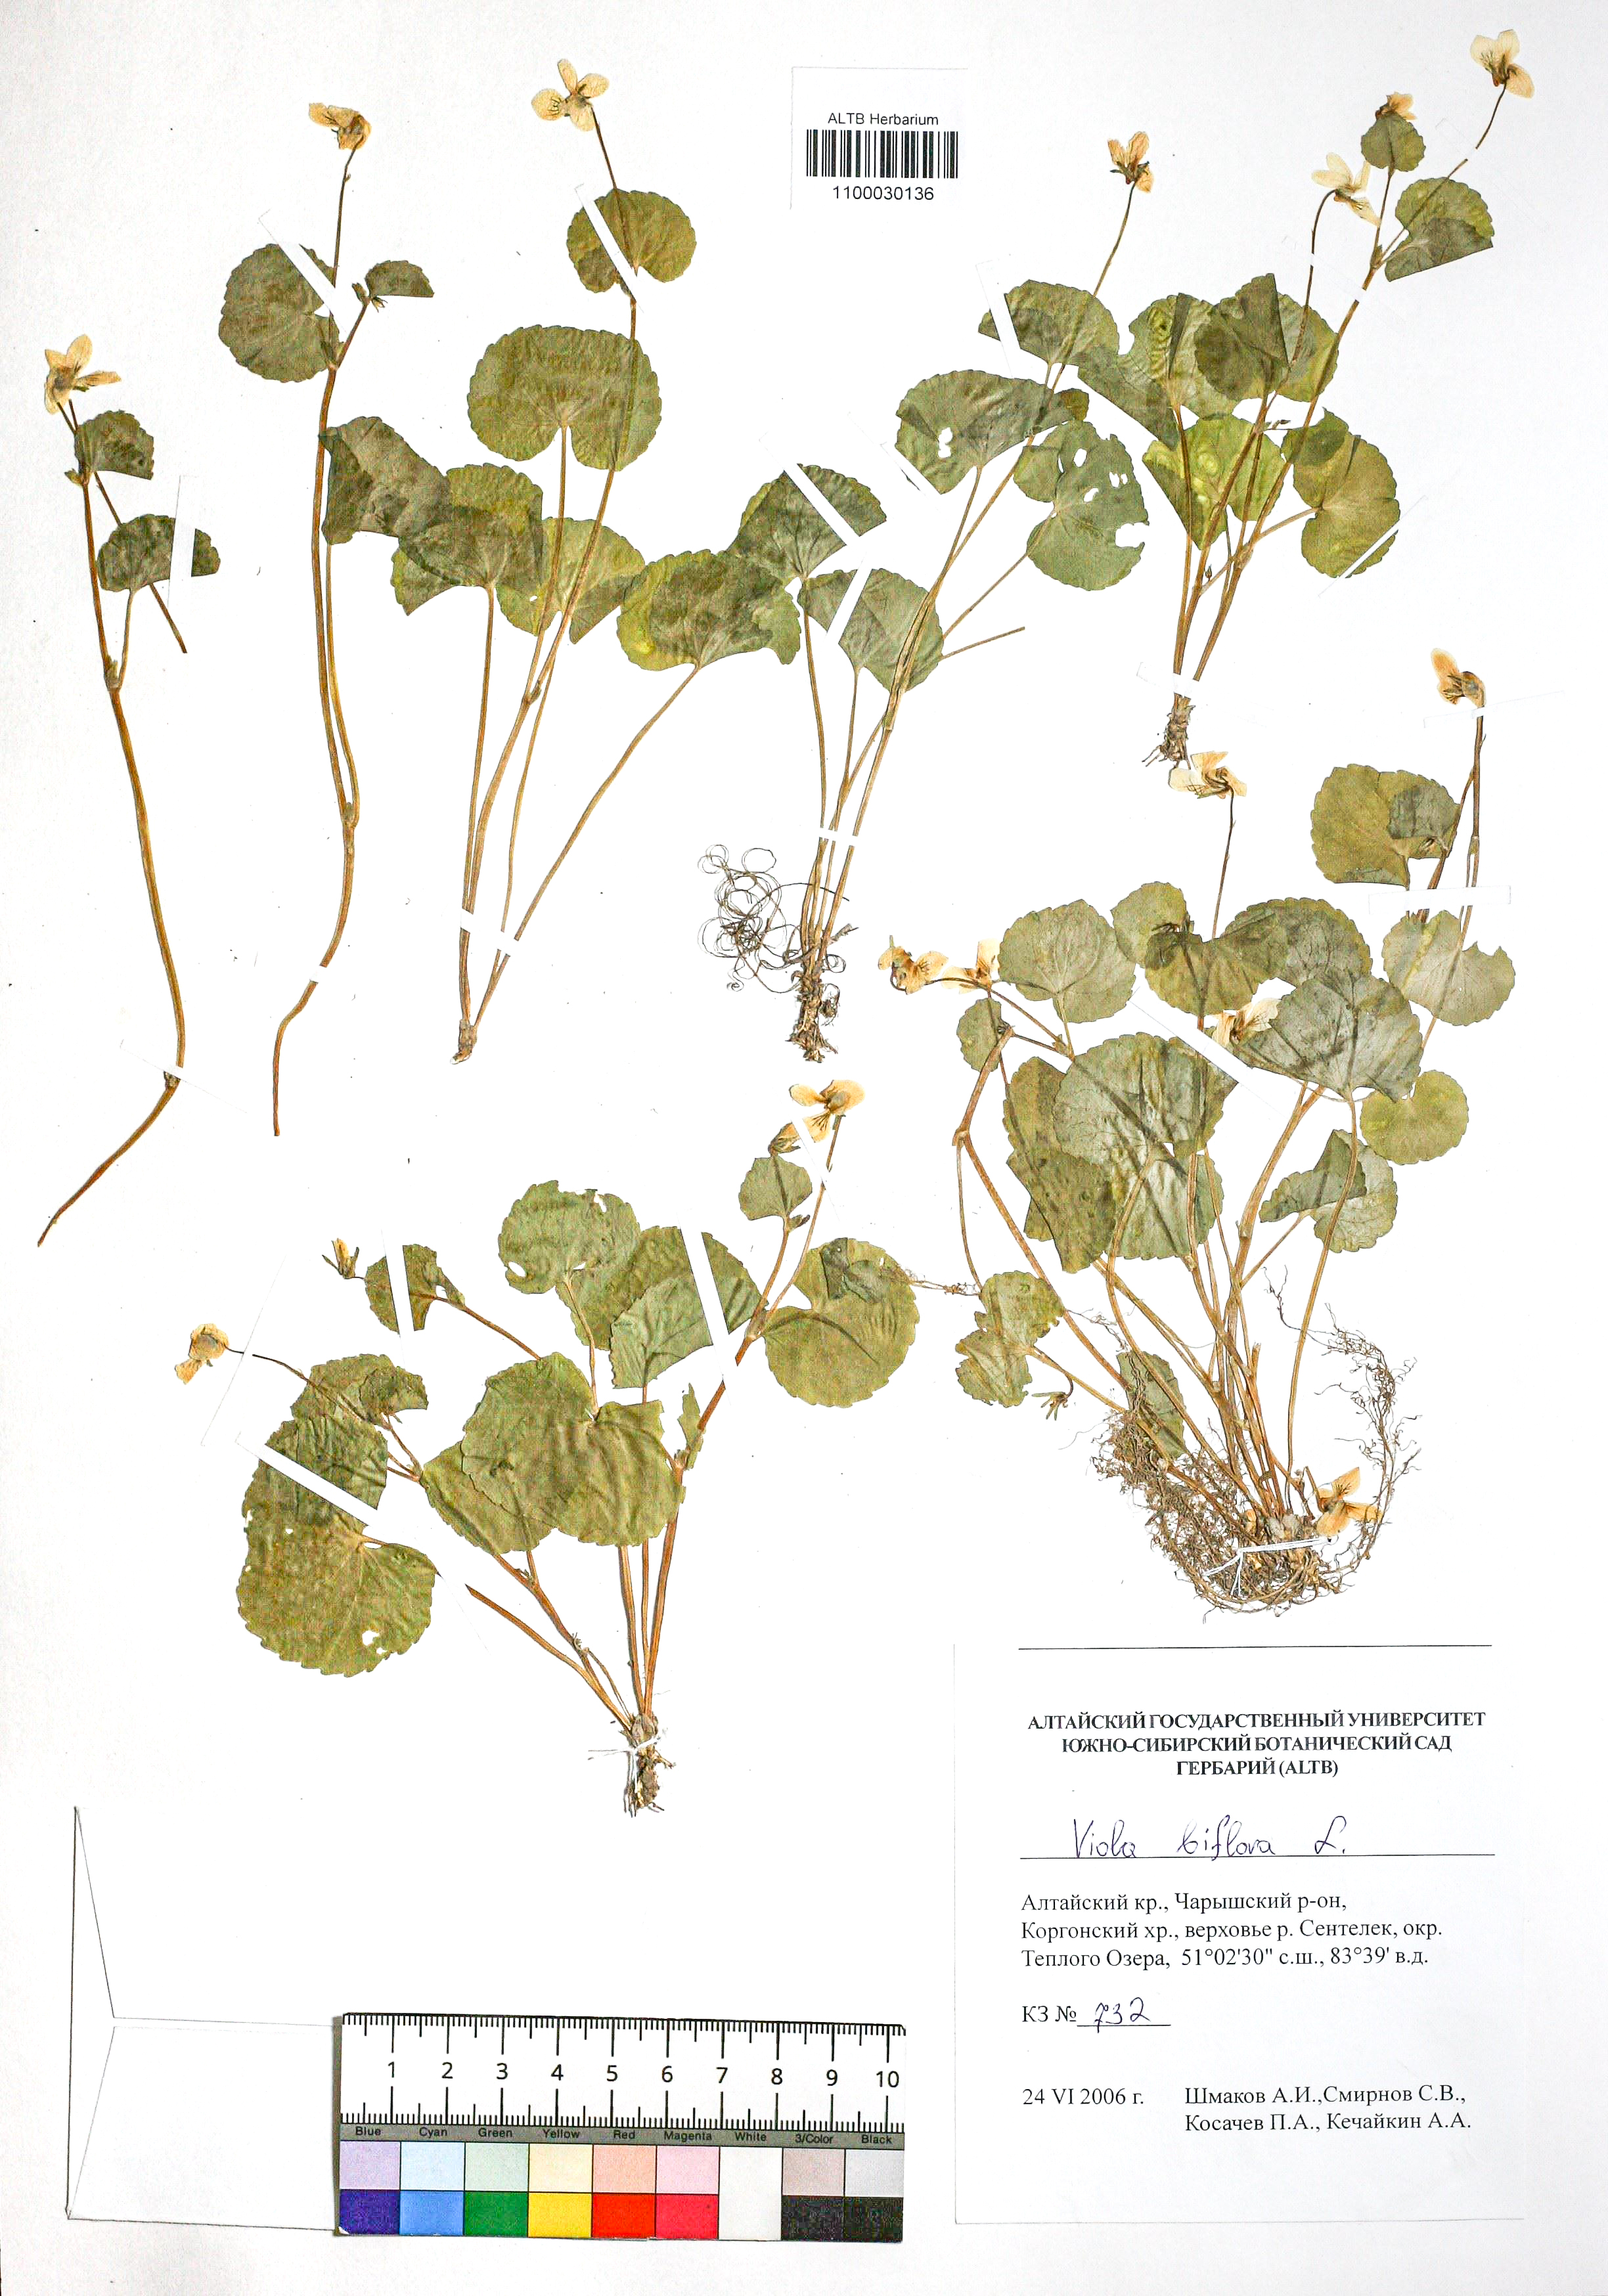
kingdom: Plantae
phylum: Tracheophyta
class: Magnoliopsida
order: Malpighiales
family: Violaceae
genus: Viola
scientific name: Viola biflora
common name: Alpine yellow violet
